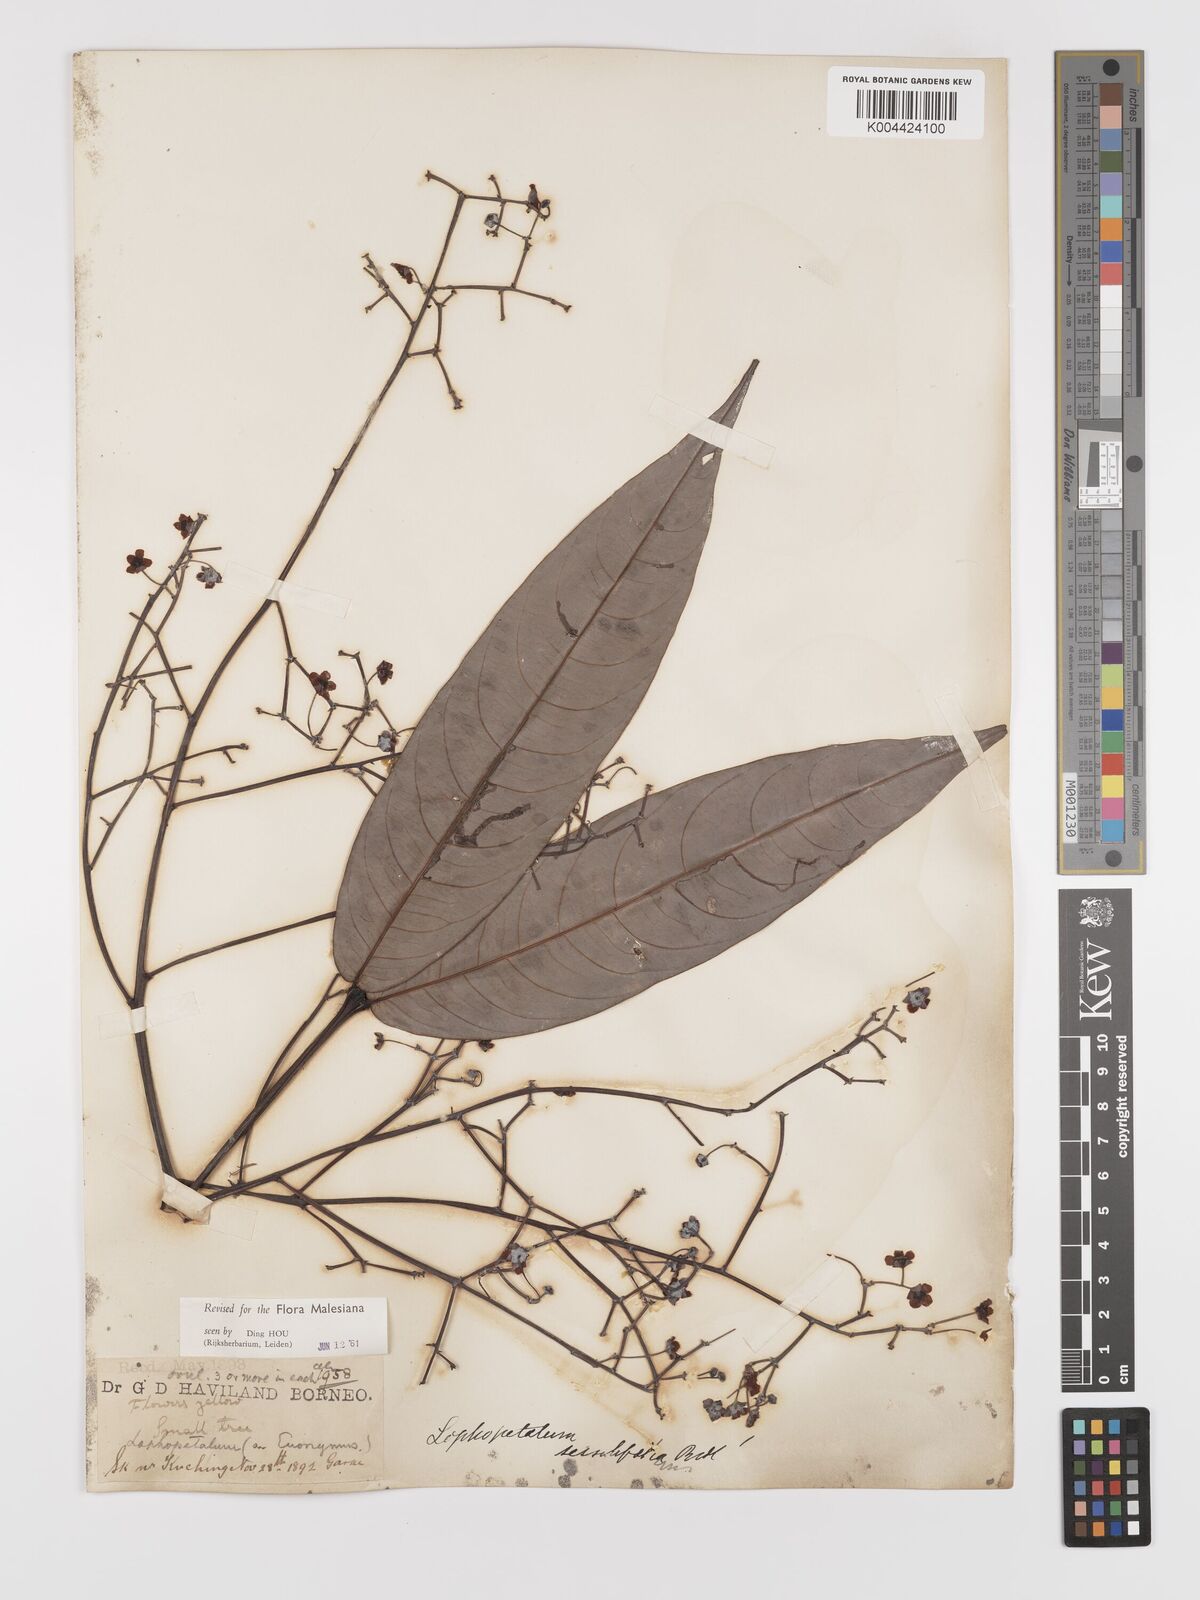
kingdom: Plantae
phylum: Tracheophyta
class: Magnoliopsida
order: Celastrales
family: Celastraceae
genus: Lophopetalum
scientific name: Lophopetalum sessilifolium
